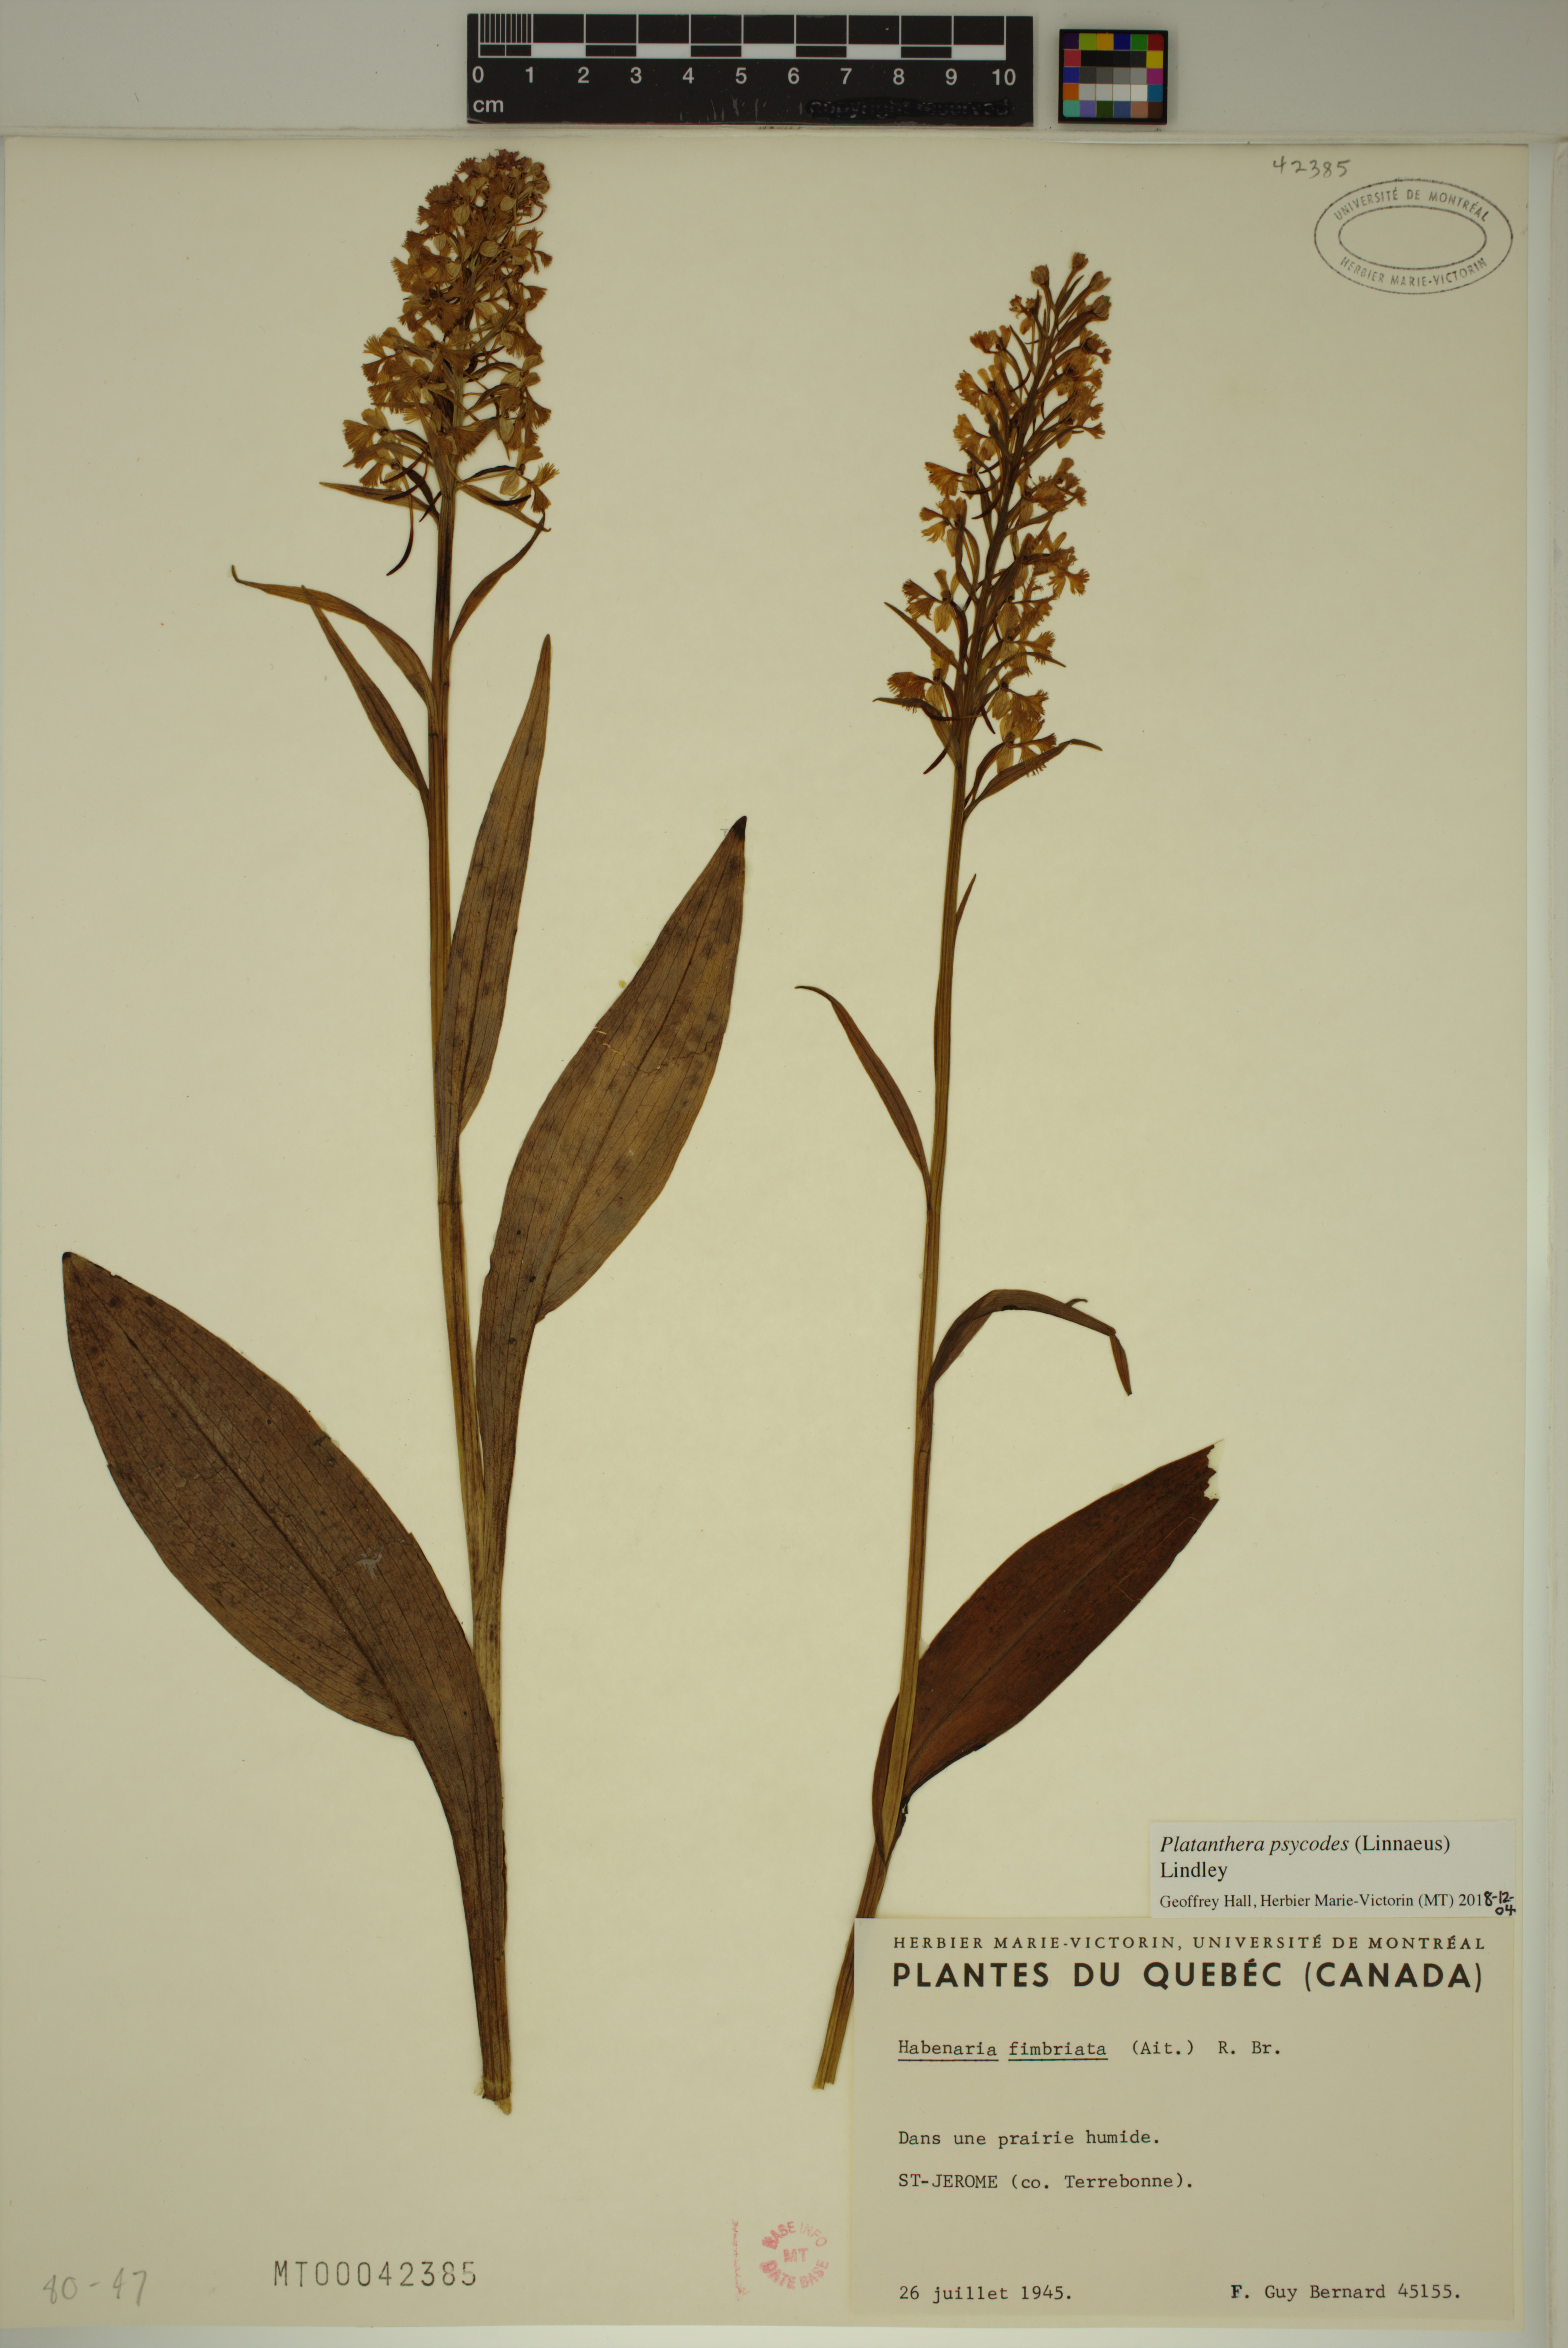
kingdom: Plantae
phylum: Tracheophyta
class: Liliopsida
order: Asparagales
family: Orchidaceae
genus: Platanthera
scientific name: Platanthera psycodes
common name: Lesser purple fringed orchid
